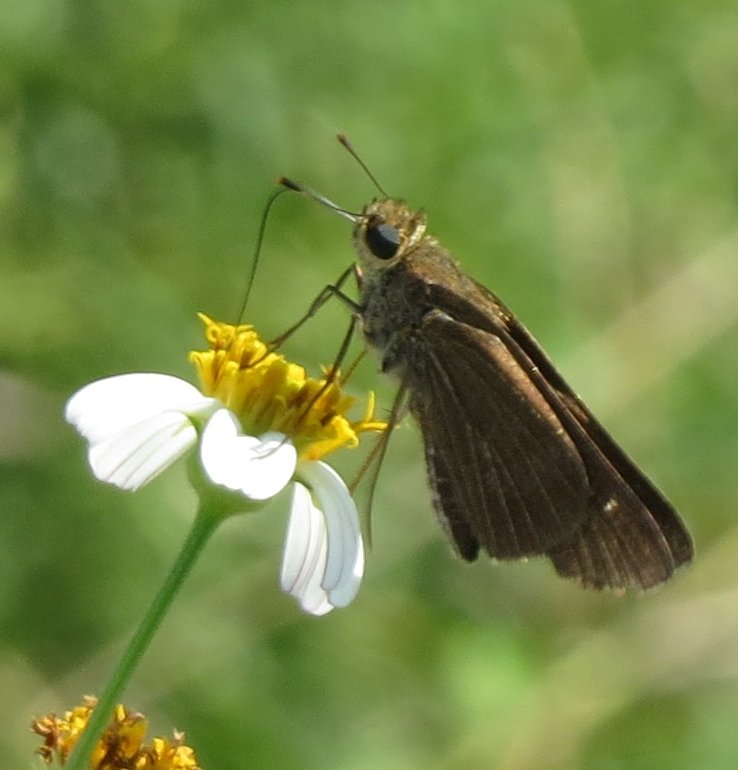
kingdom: Animalia
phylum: Arthropoda
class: Insecta
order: Lepidoptera
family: Hesperiidae
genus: Panoquina
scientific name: Panoquina ocola
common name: Ocola Skipper
